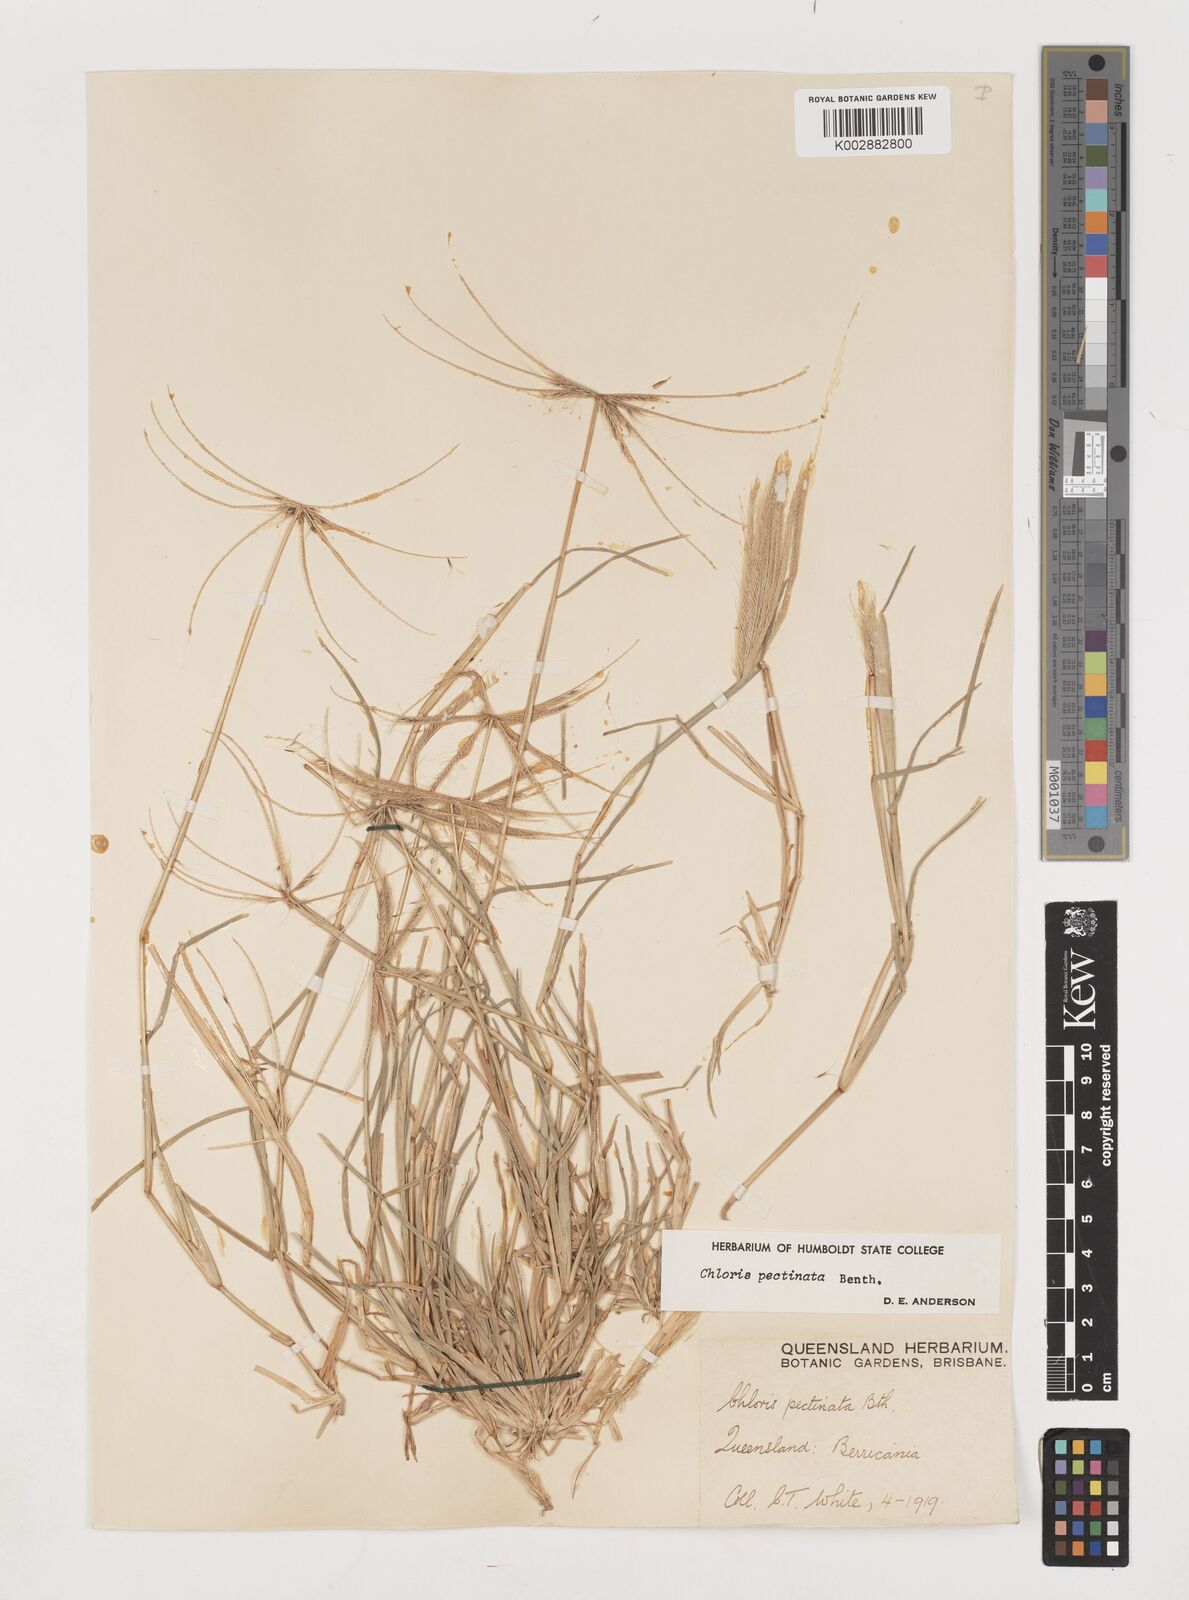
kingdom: Plantae
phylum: Tracheophyta
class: Liliopsida
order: Poales
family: Poaceae
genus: Chloris
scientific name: Chloris pectinata
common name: Comb windmill grass
